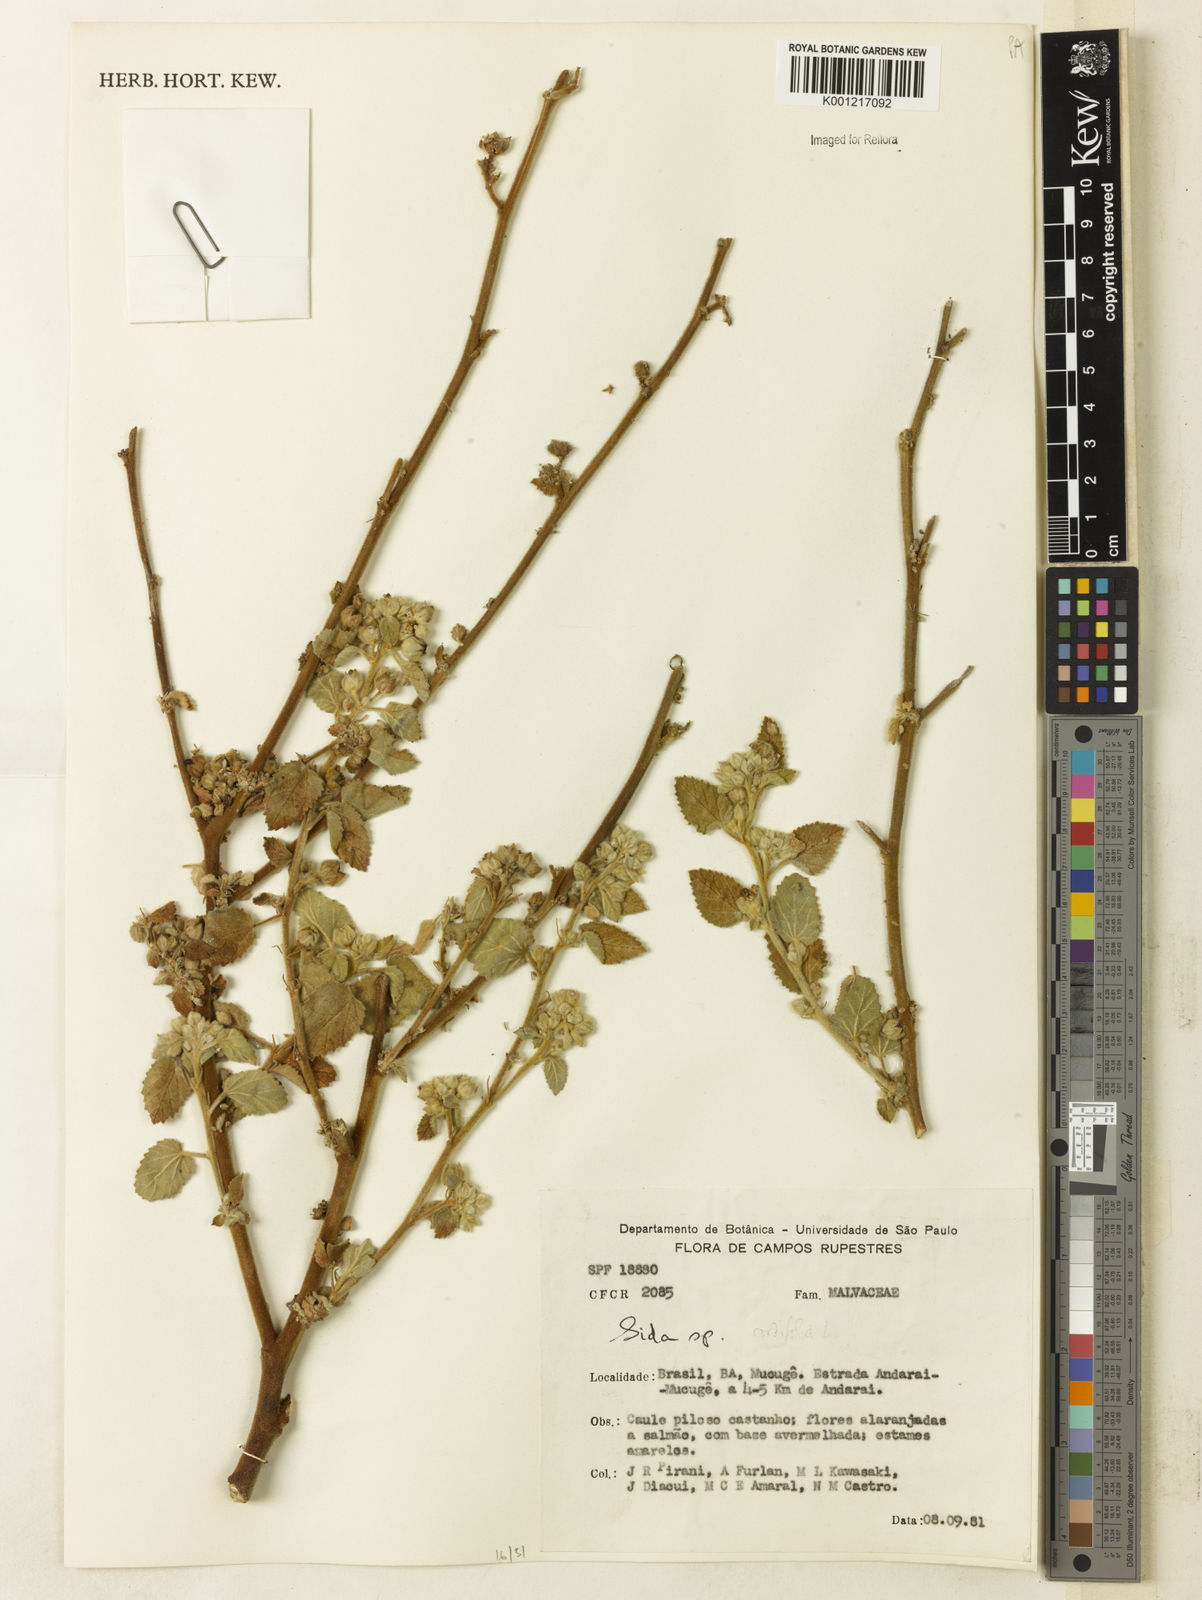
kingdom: Plantae
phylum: Tracheophyta
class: Magnoliopsida
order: Malvales
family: Malvaceae
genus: Sida
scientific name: Sida cordifolia
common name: Ilima
